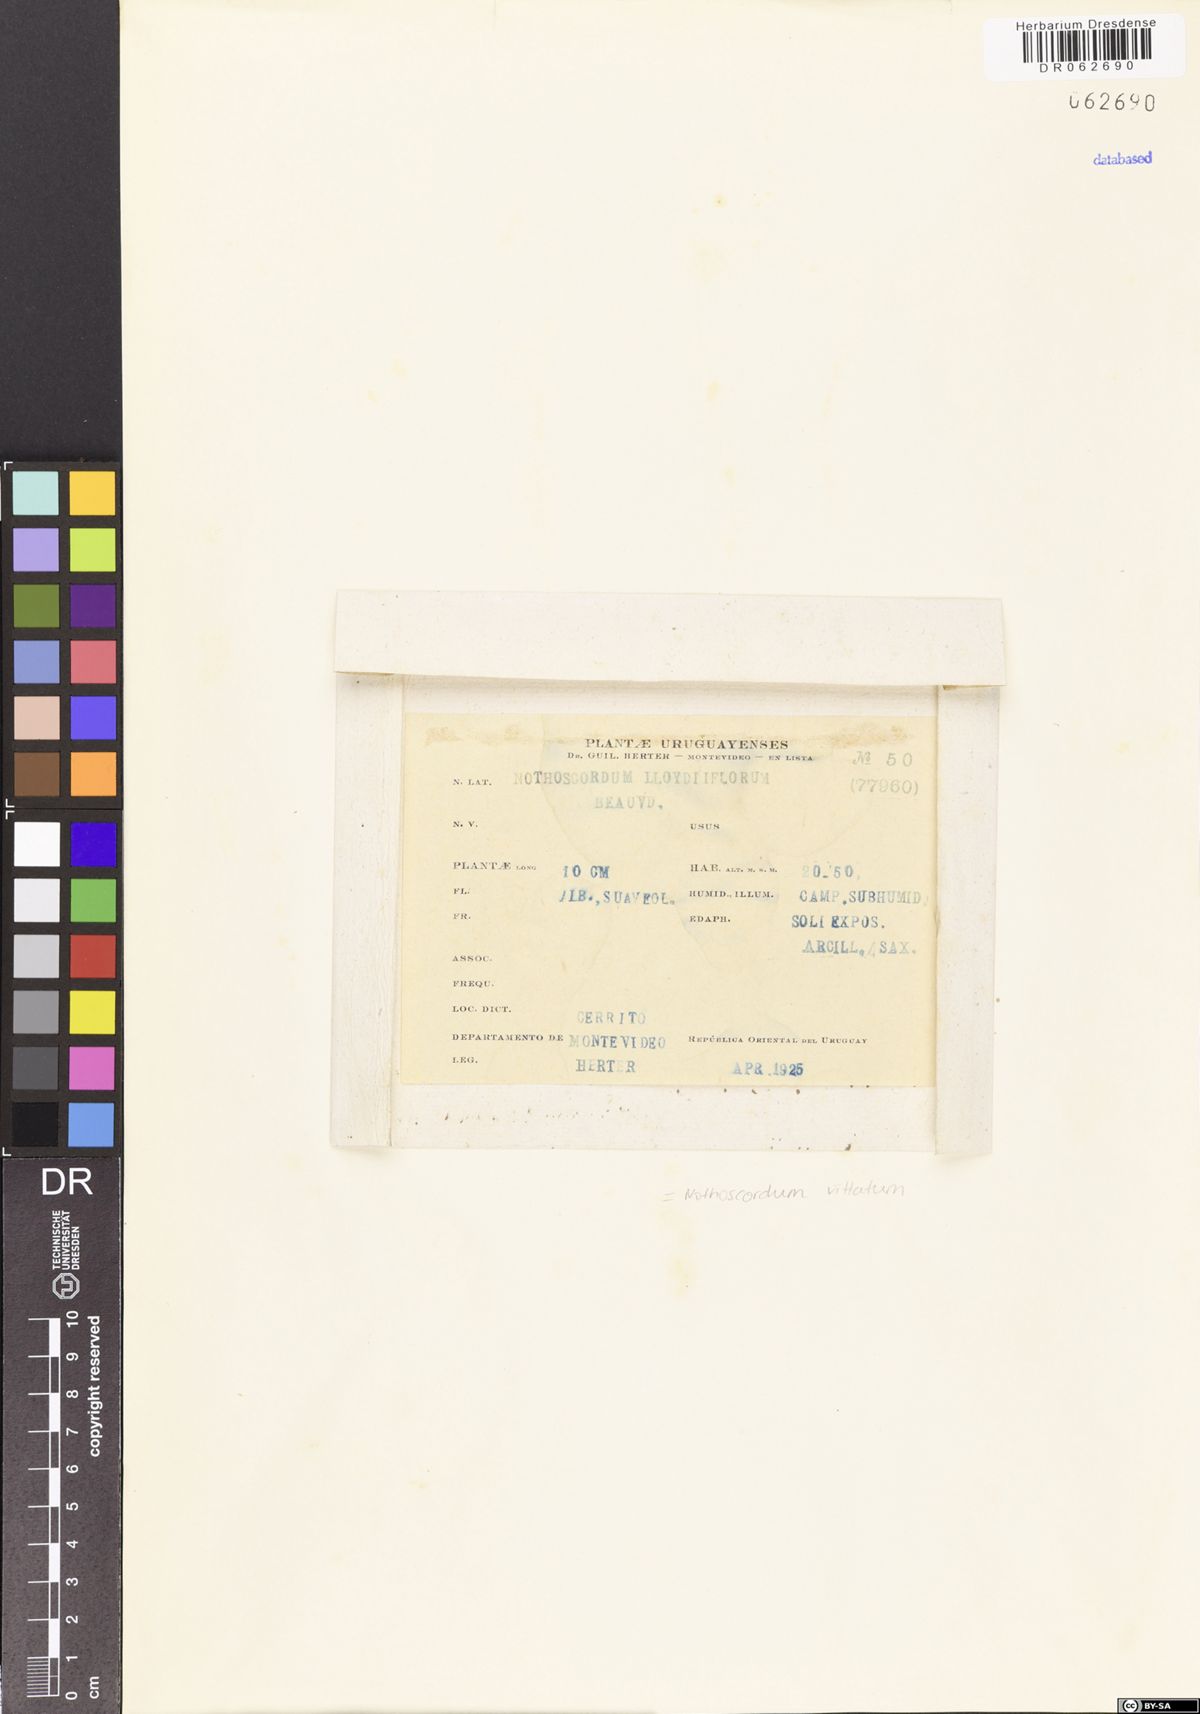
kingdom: Plantae
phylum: Tracheophyta
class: Liliopsida
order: Asparagales
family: Amaryllidaceae
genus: Nothoscordum
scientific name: Nothoscordum vittatum
